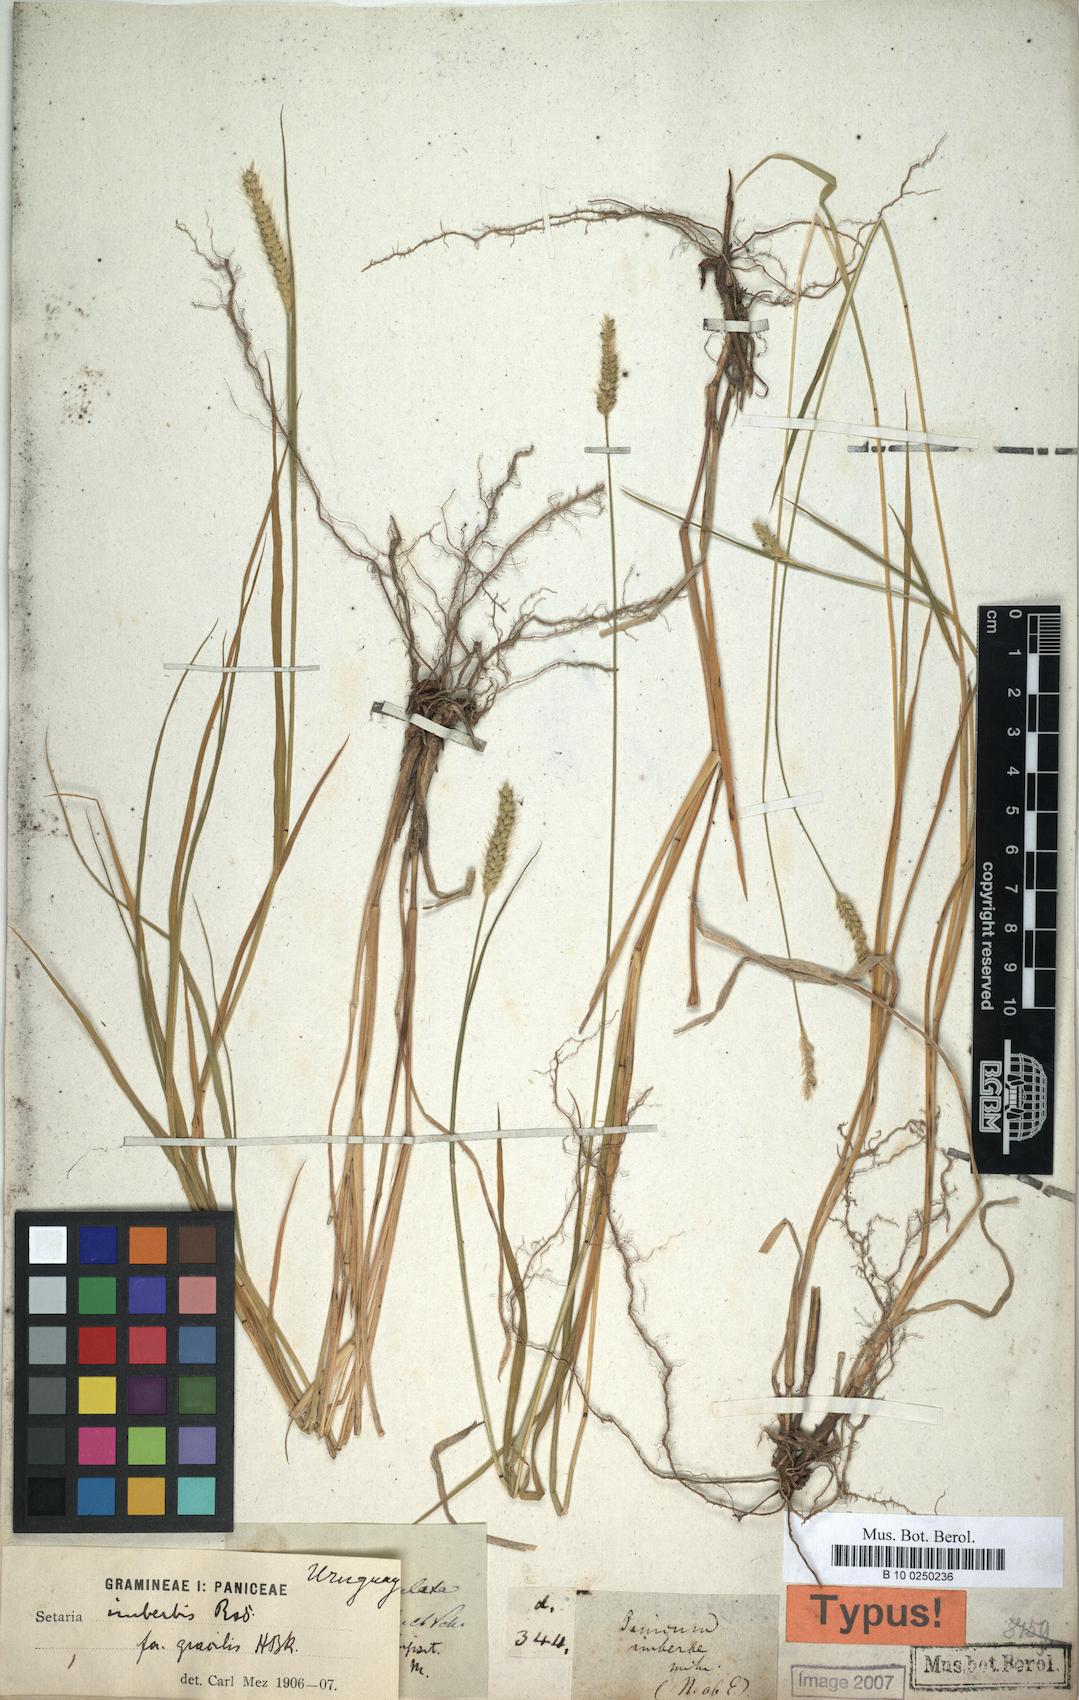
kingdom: Plantae
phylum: Tracheophyta
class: Liliopsida
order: Poales
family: Poaceae
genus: Setaria
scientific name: Setaria parviflora
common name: Knotroot bristle-grass
